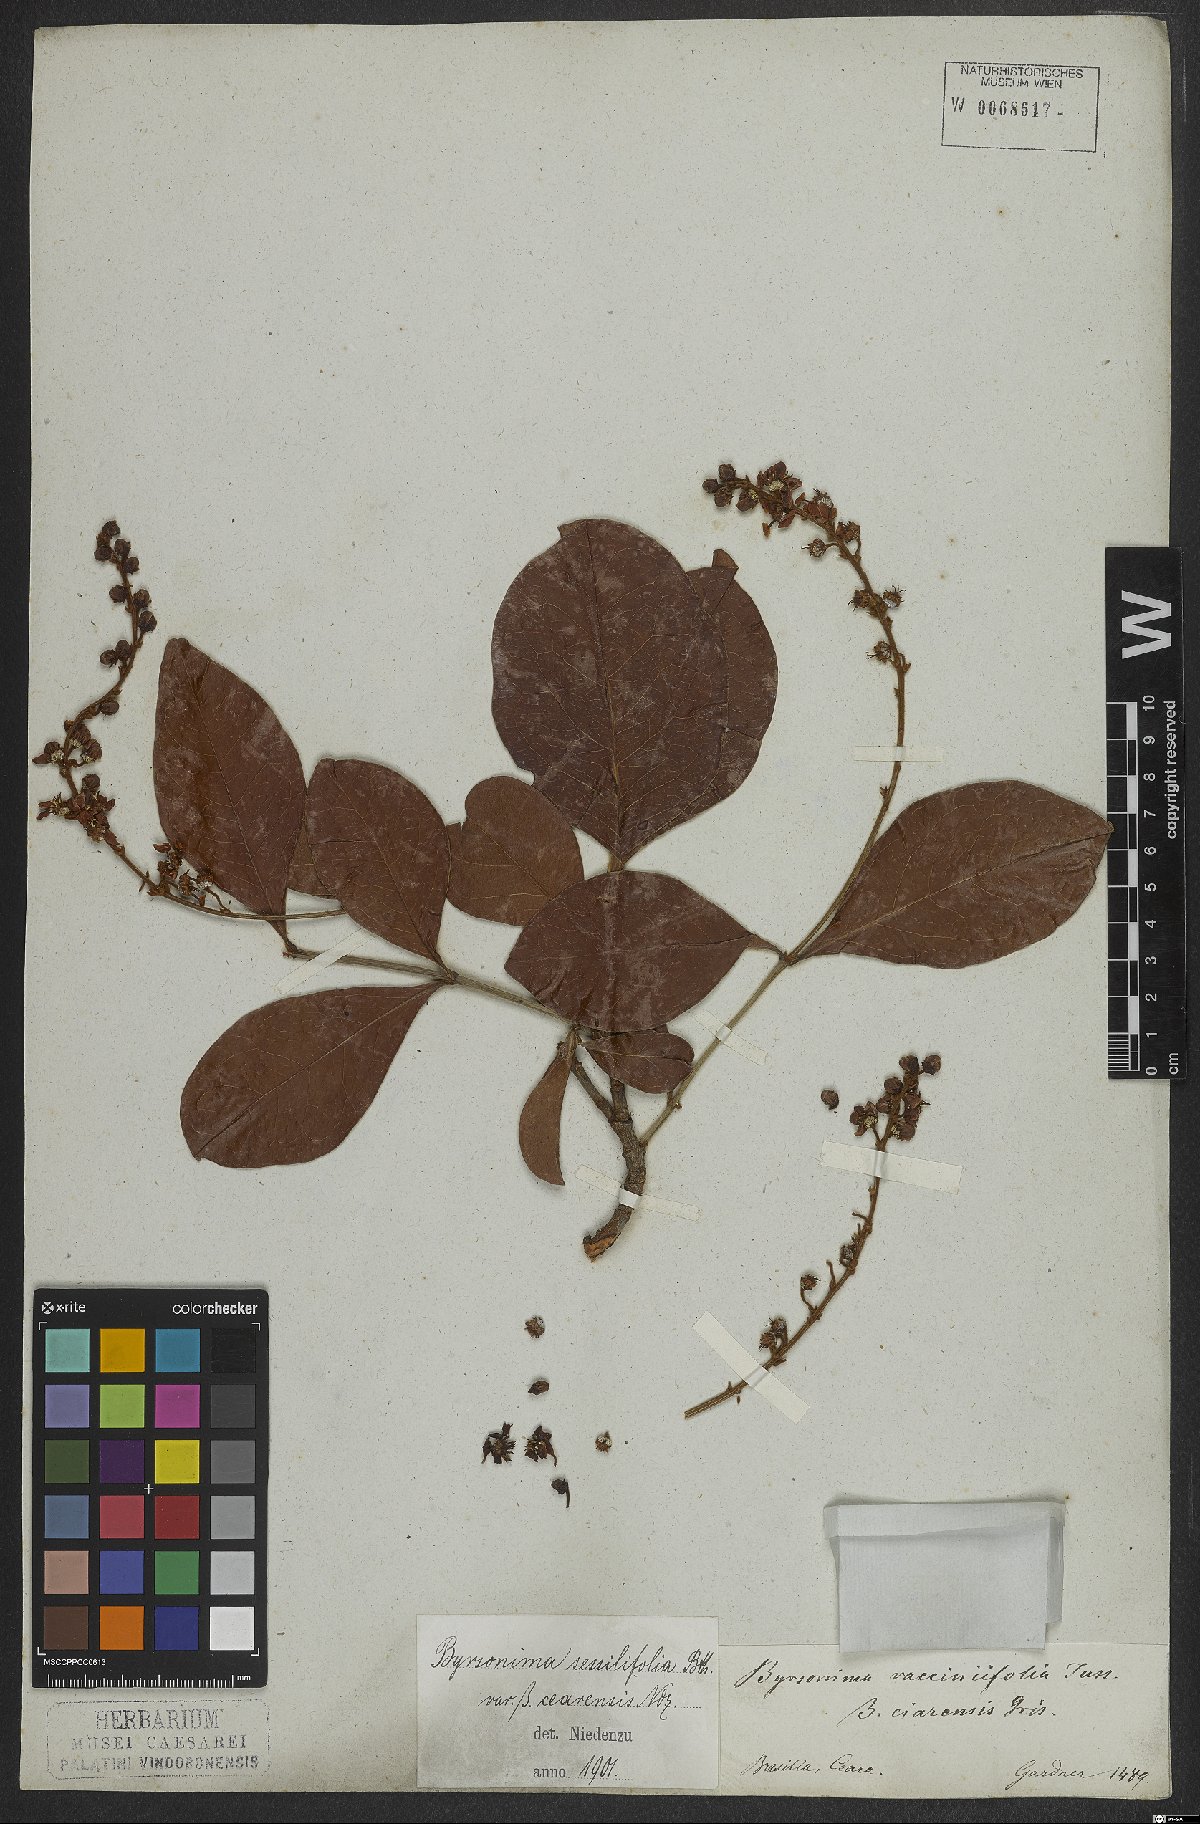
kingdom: Plantae
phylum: Tracheophyta
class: Magnoliopsida
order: Malpighiales
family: Malpighiaceae
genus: Byrsonima
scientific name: Byrsonima vacciniifolia
